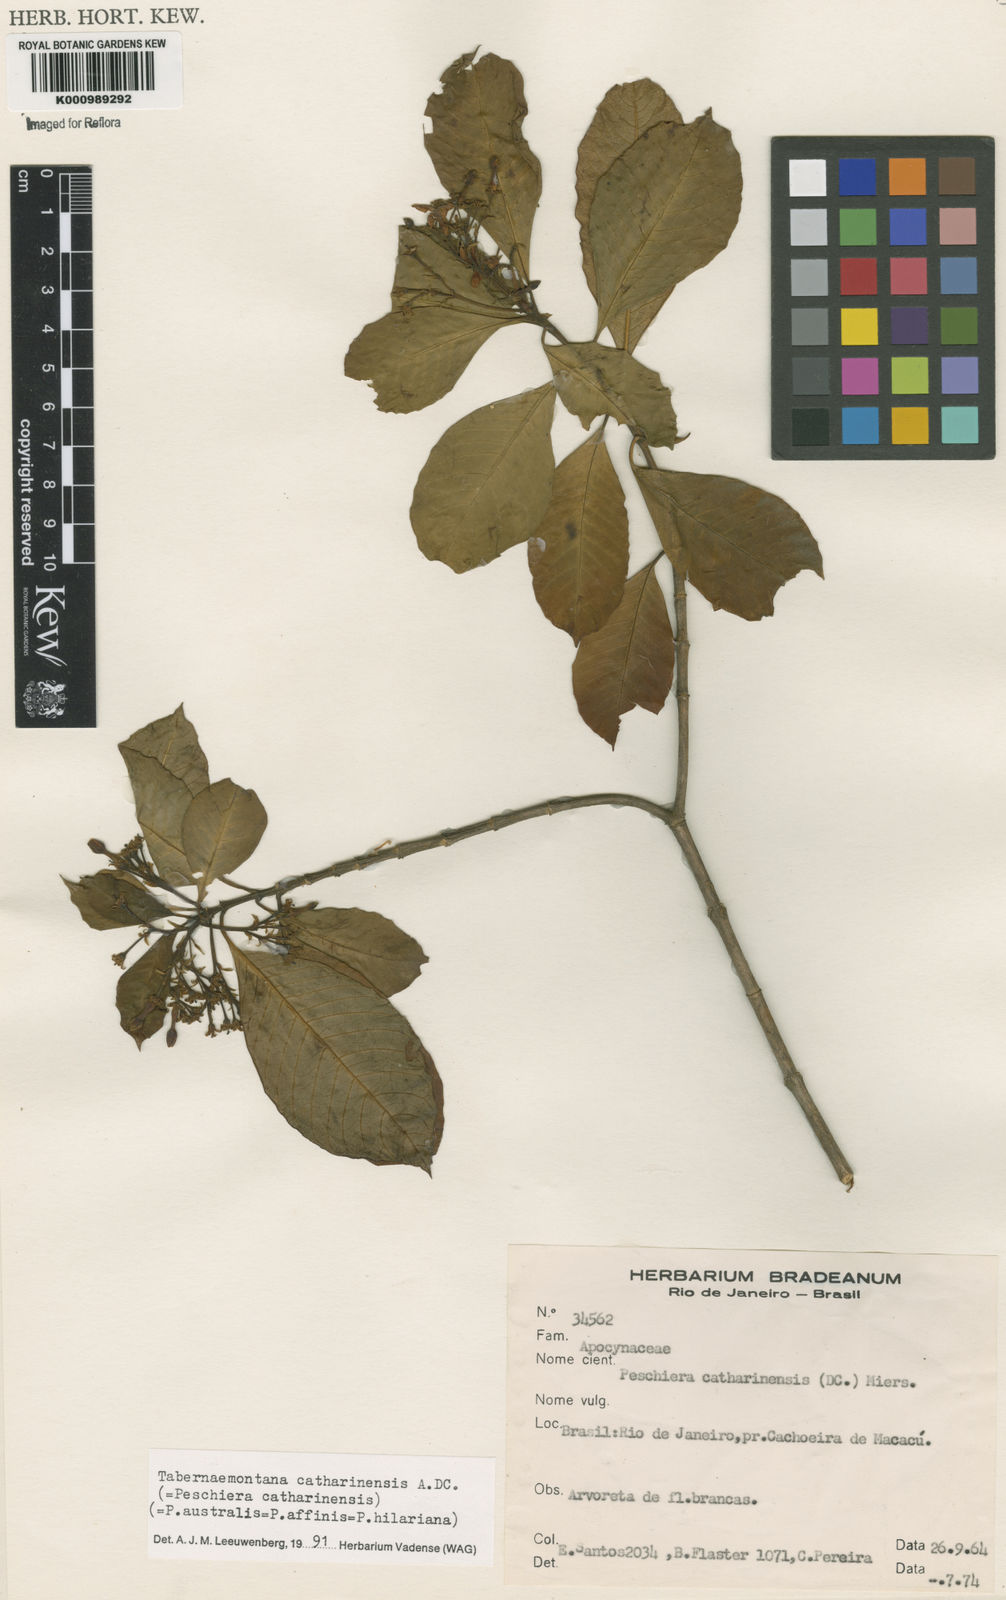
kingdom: Plantae
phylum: Tracheophyta
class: Magnoliopsida
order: Gentianales
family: Apocynaceae
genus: Tabernaemontana
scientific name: Tabernaemontana catharinensis
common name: Pinwheel-flower
